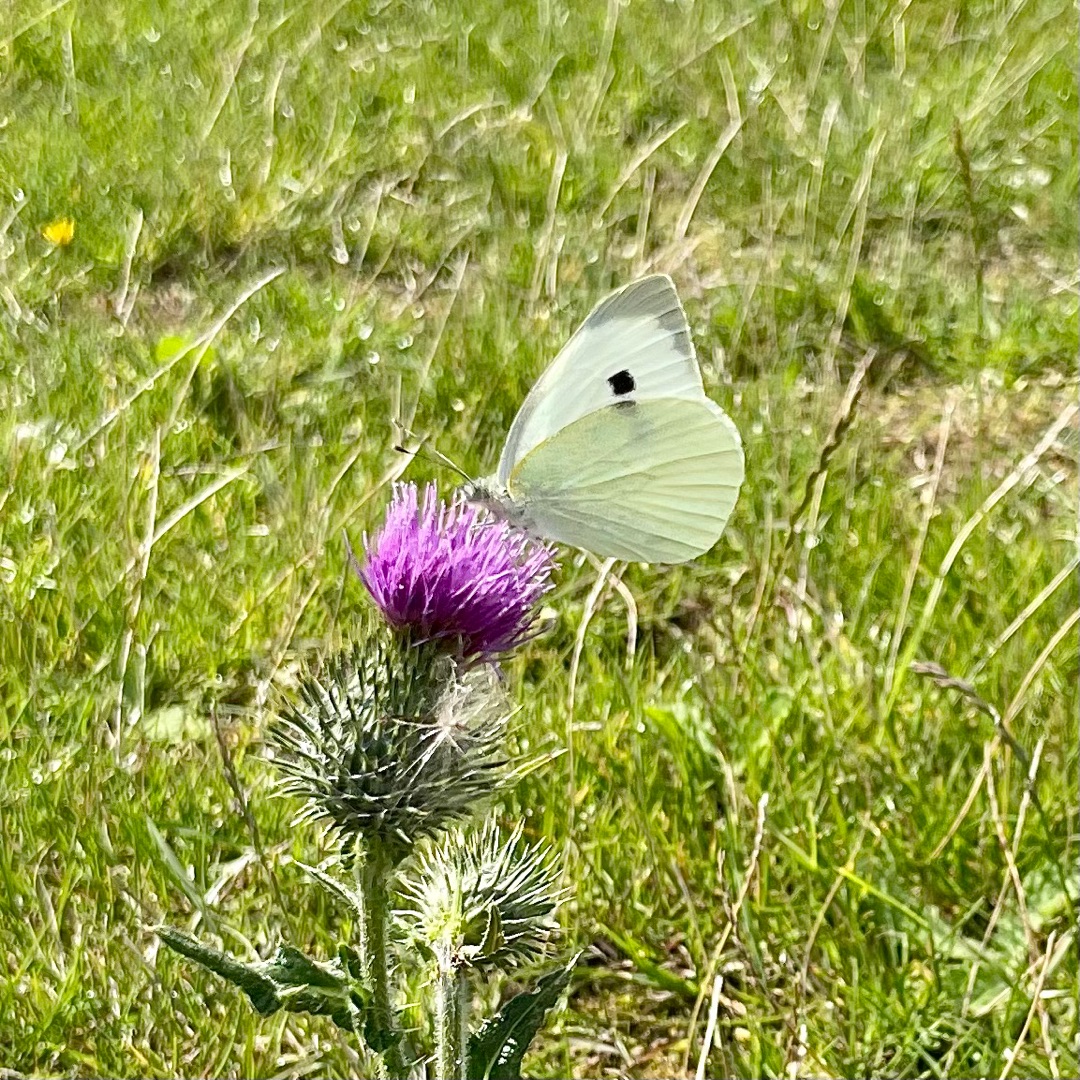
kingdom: Animalia
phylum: Arthropoda
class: Insecta
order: Lepidoptera
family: Pieridae
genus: Pieris
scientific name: Pieris brassicae
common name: Stor kålsommerfugl
